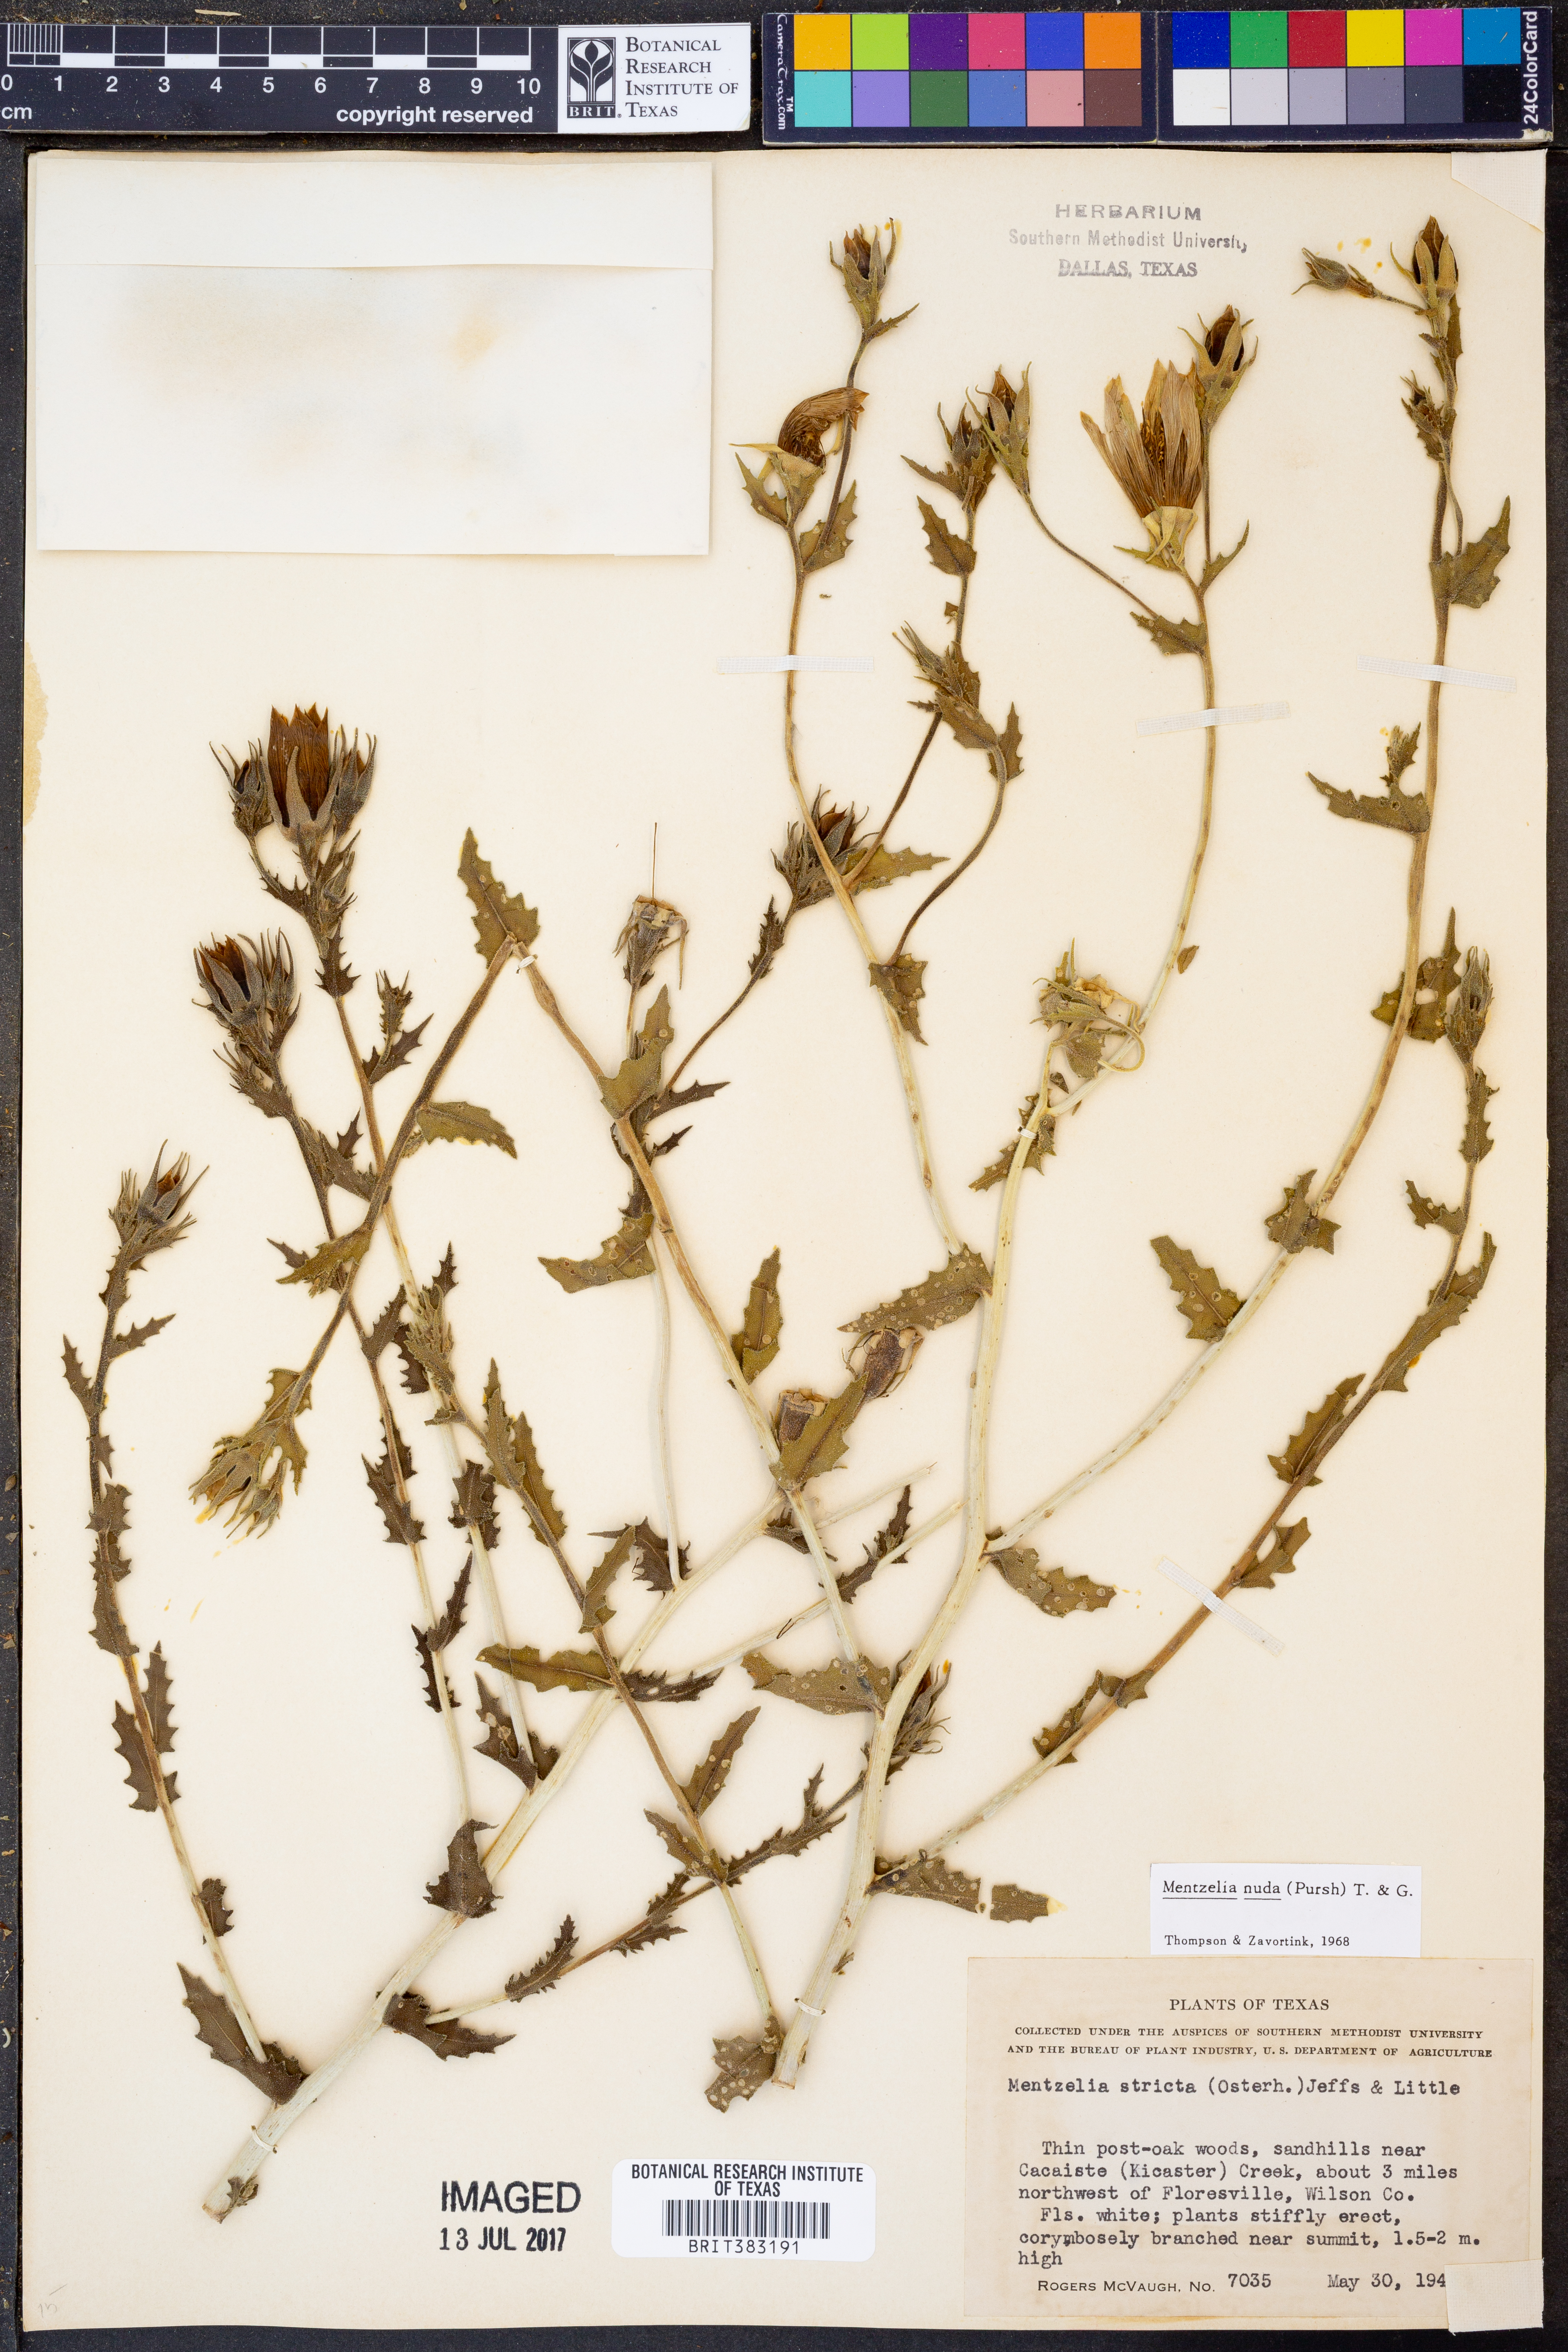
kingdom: Plantae
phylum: Tracheophyta
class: Magnoliopsida
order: Cornales
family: Loasaceae
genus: Mentzelia
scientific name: Mentzelia nuda
